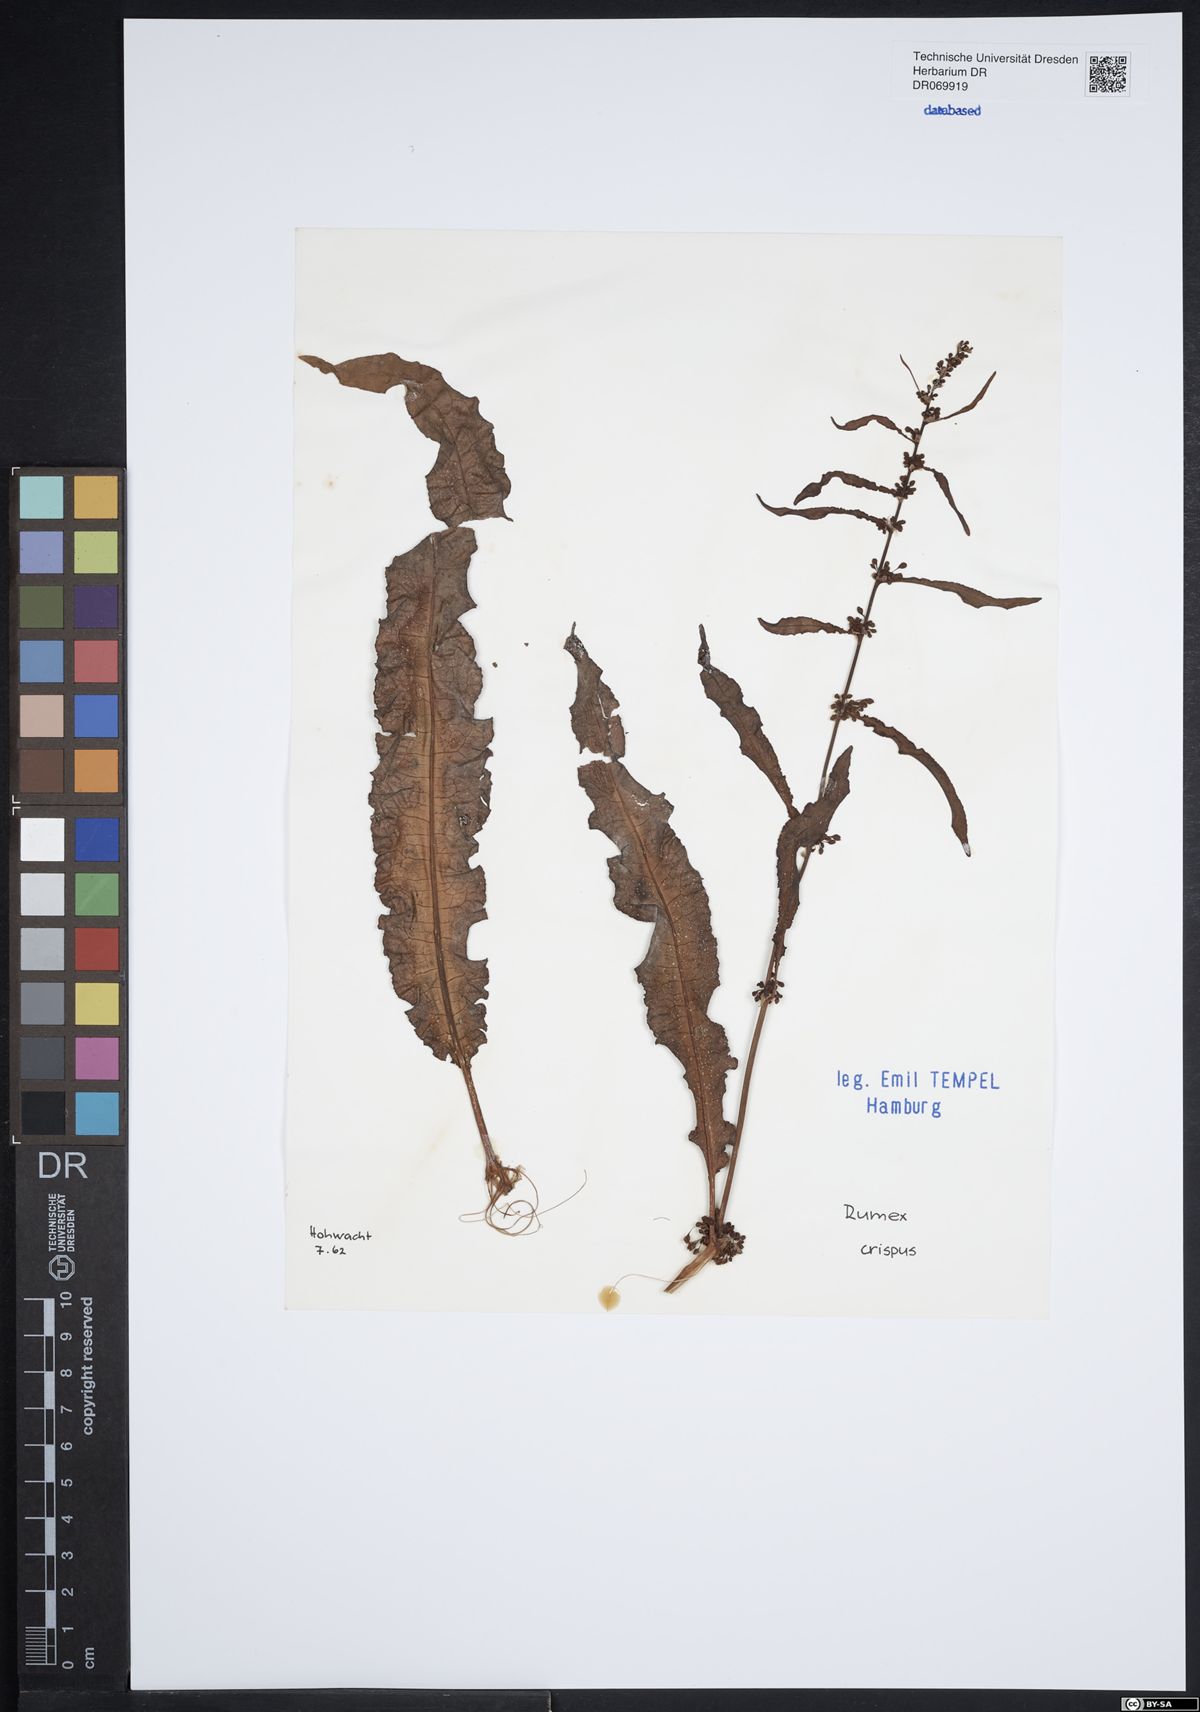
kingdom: Plantae
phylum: Tracheophyta
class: Magnoliopsida
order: Caryophyllales
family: Polygonaceae
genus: Rumex
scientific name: Rumex crispus
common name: Curled dock
